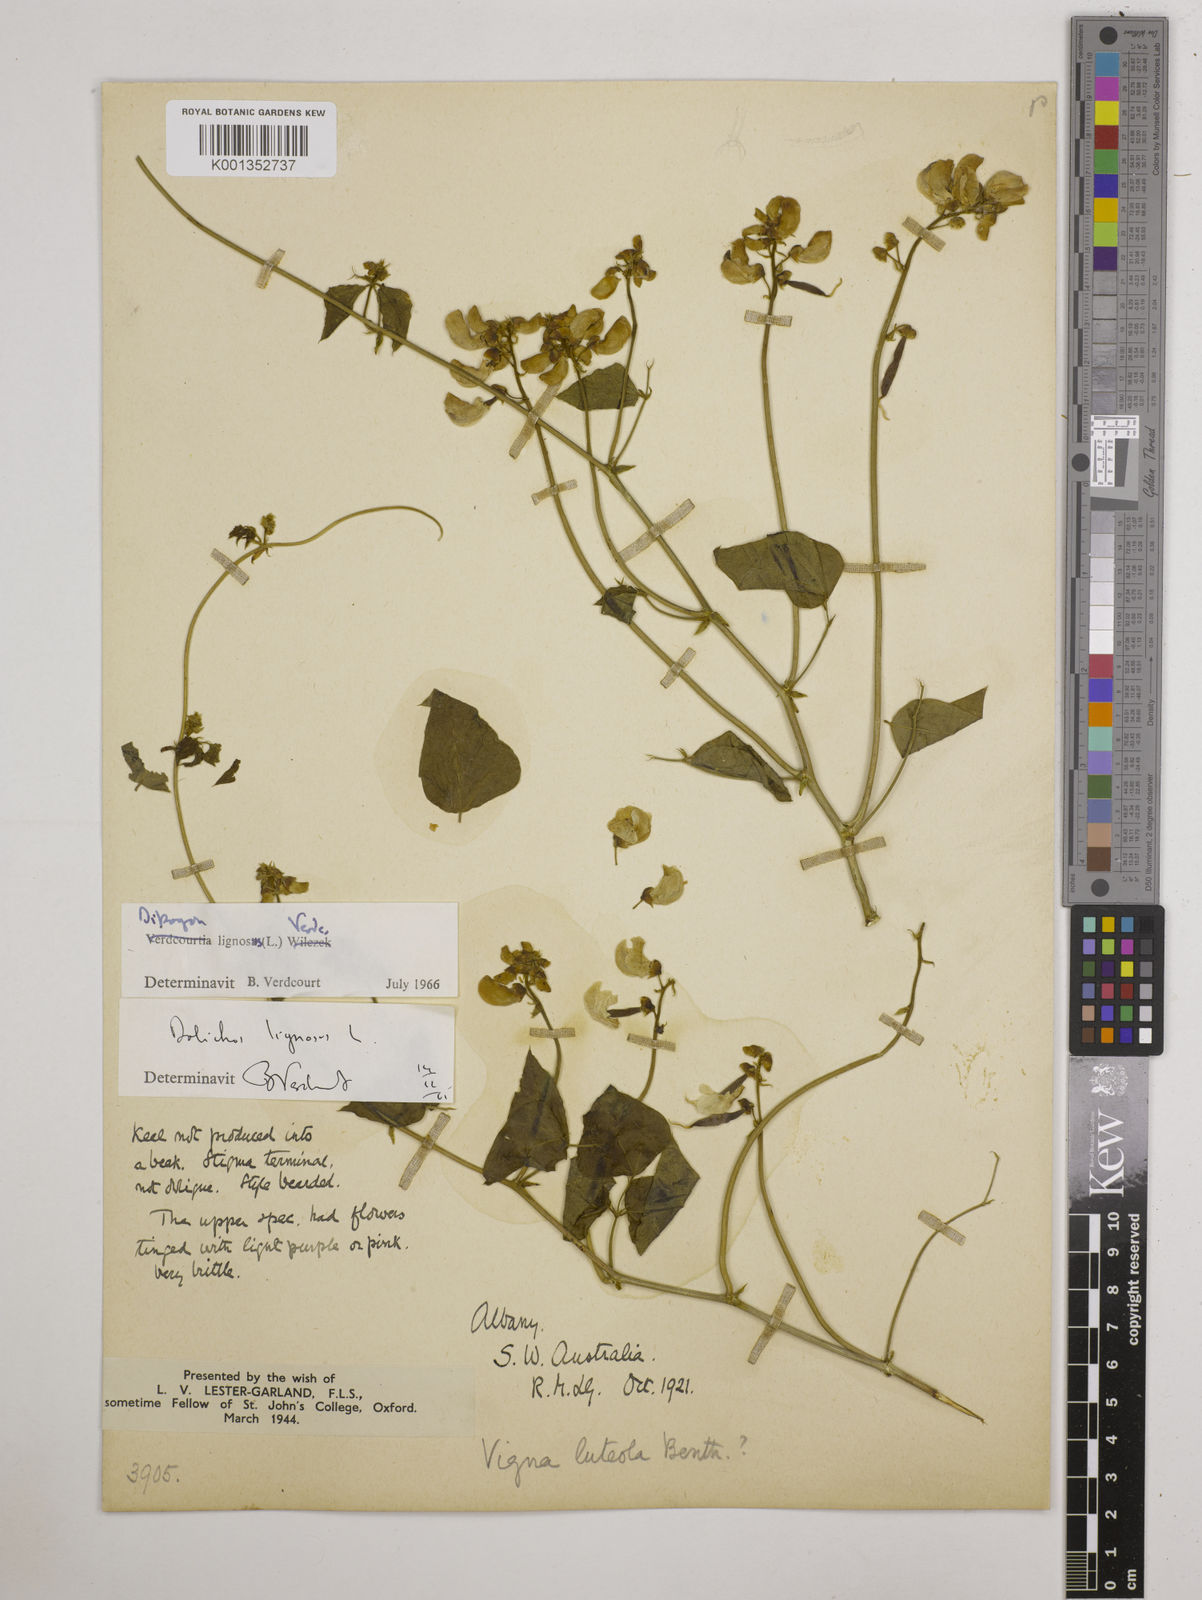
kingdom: Plantae
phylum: Tracheophyta
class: Magnoliopsida
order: Fabales
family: Fabaceae
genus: Dipogon
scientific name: Dipogon lignosus
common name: Okie bean
